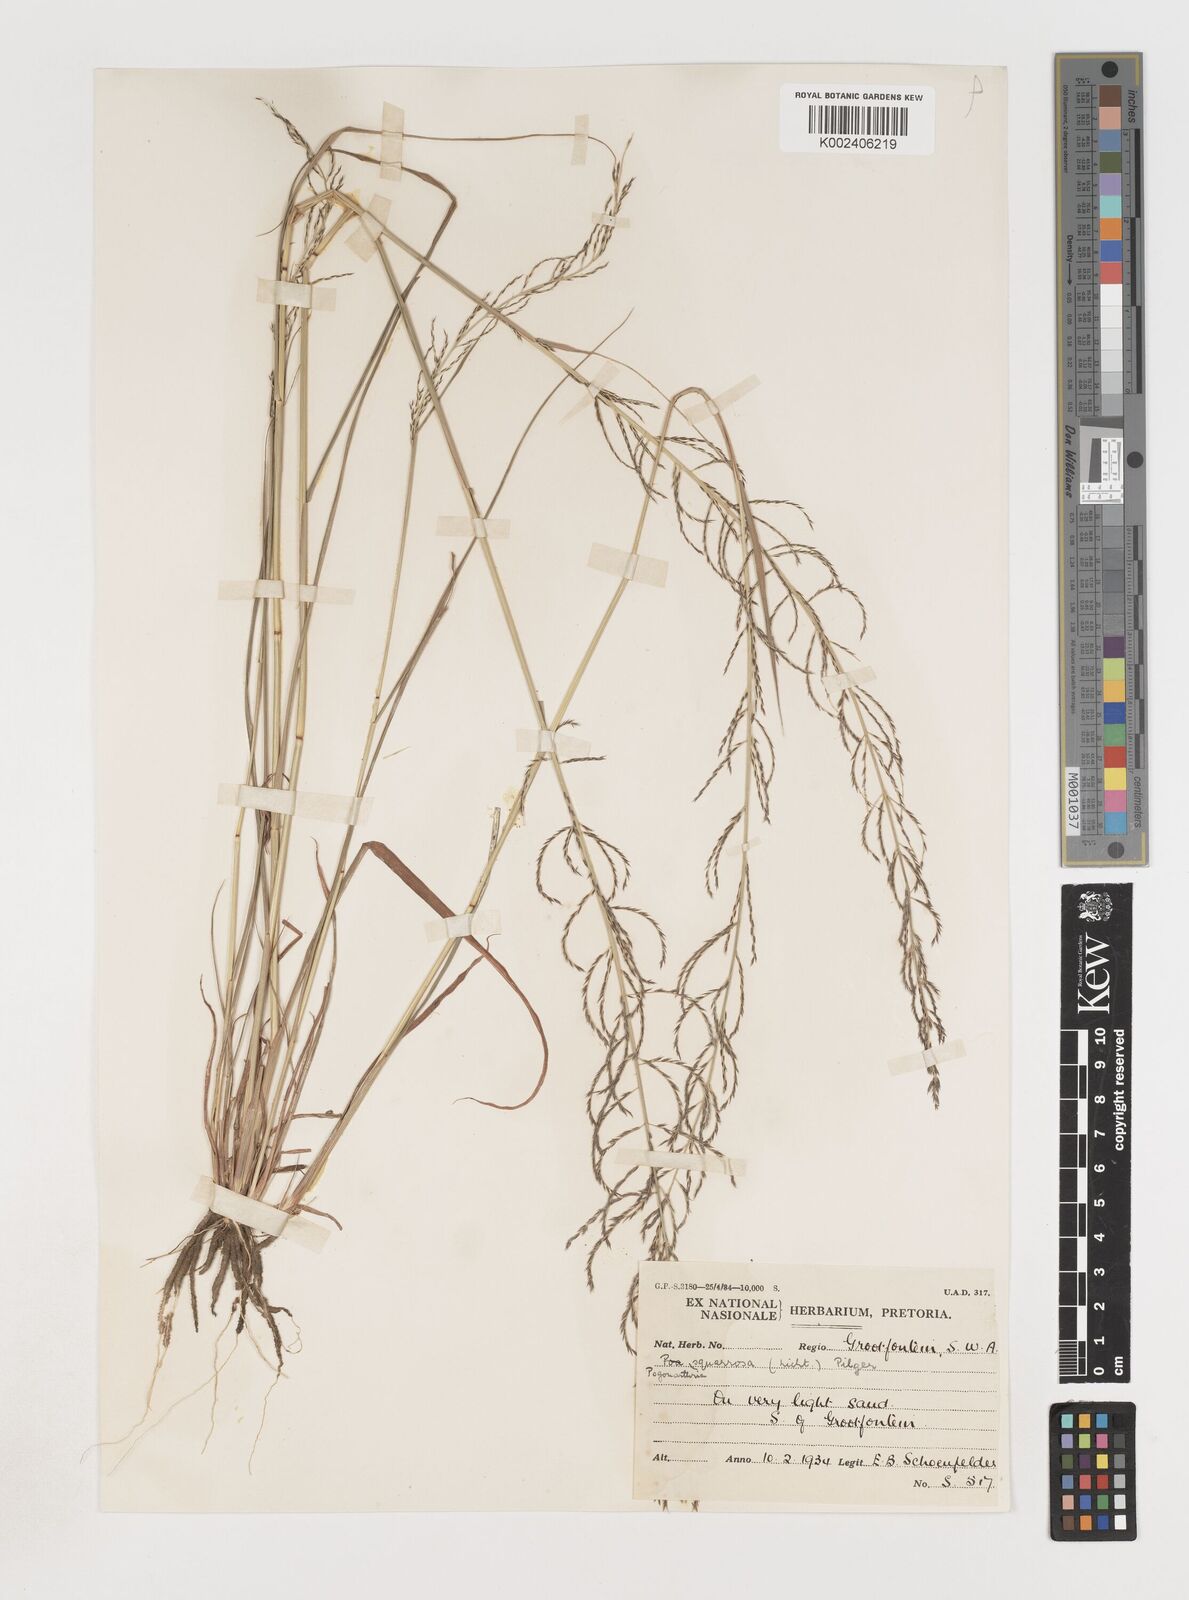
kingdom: Plantae
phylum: Tracheophyta
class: Liliopsida
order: Poales
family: Poaceae
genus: Pogonarthria
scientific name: Pogonarthria squarrosa
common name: Grass
